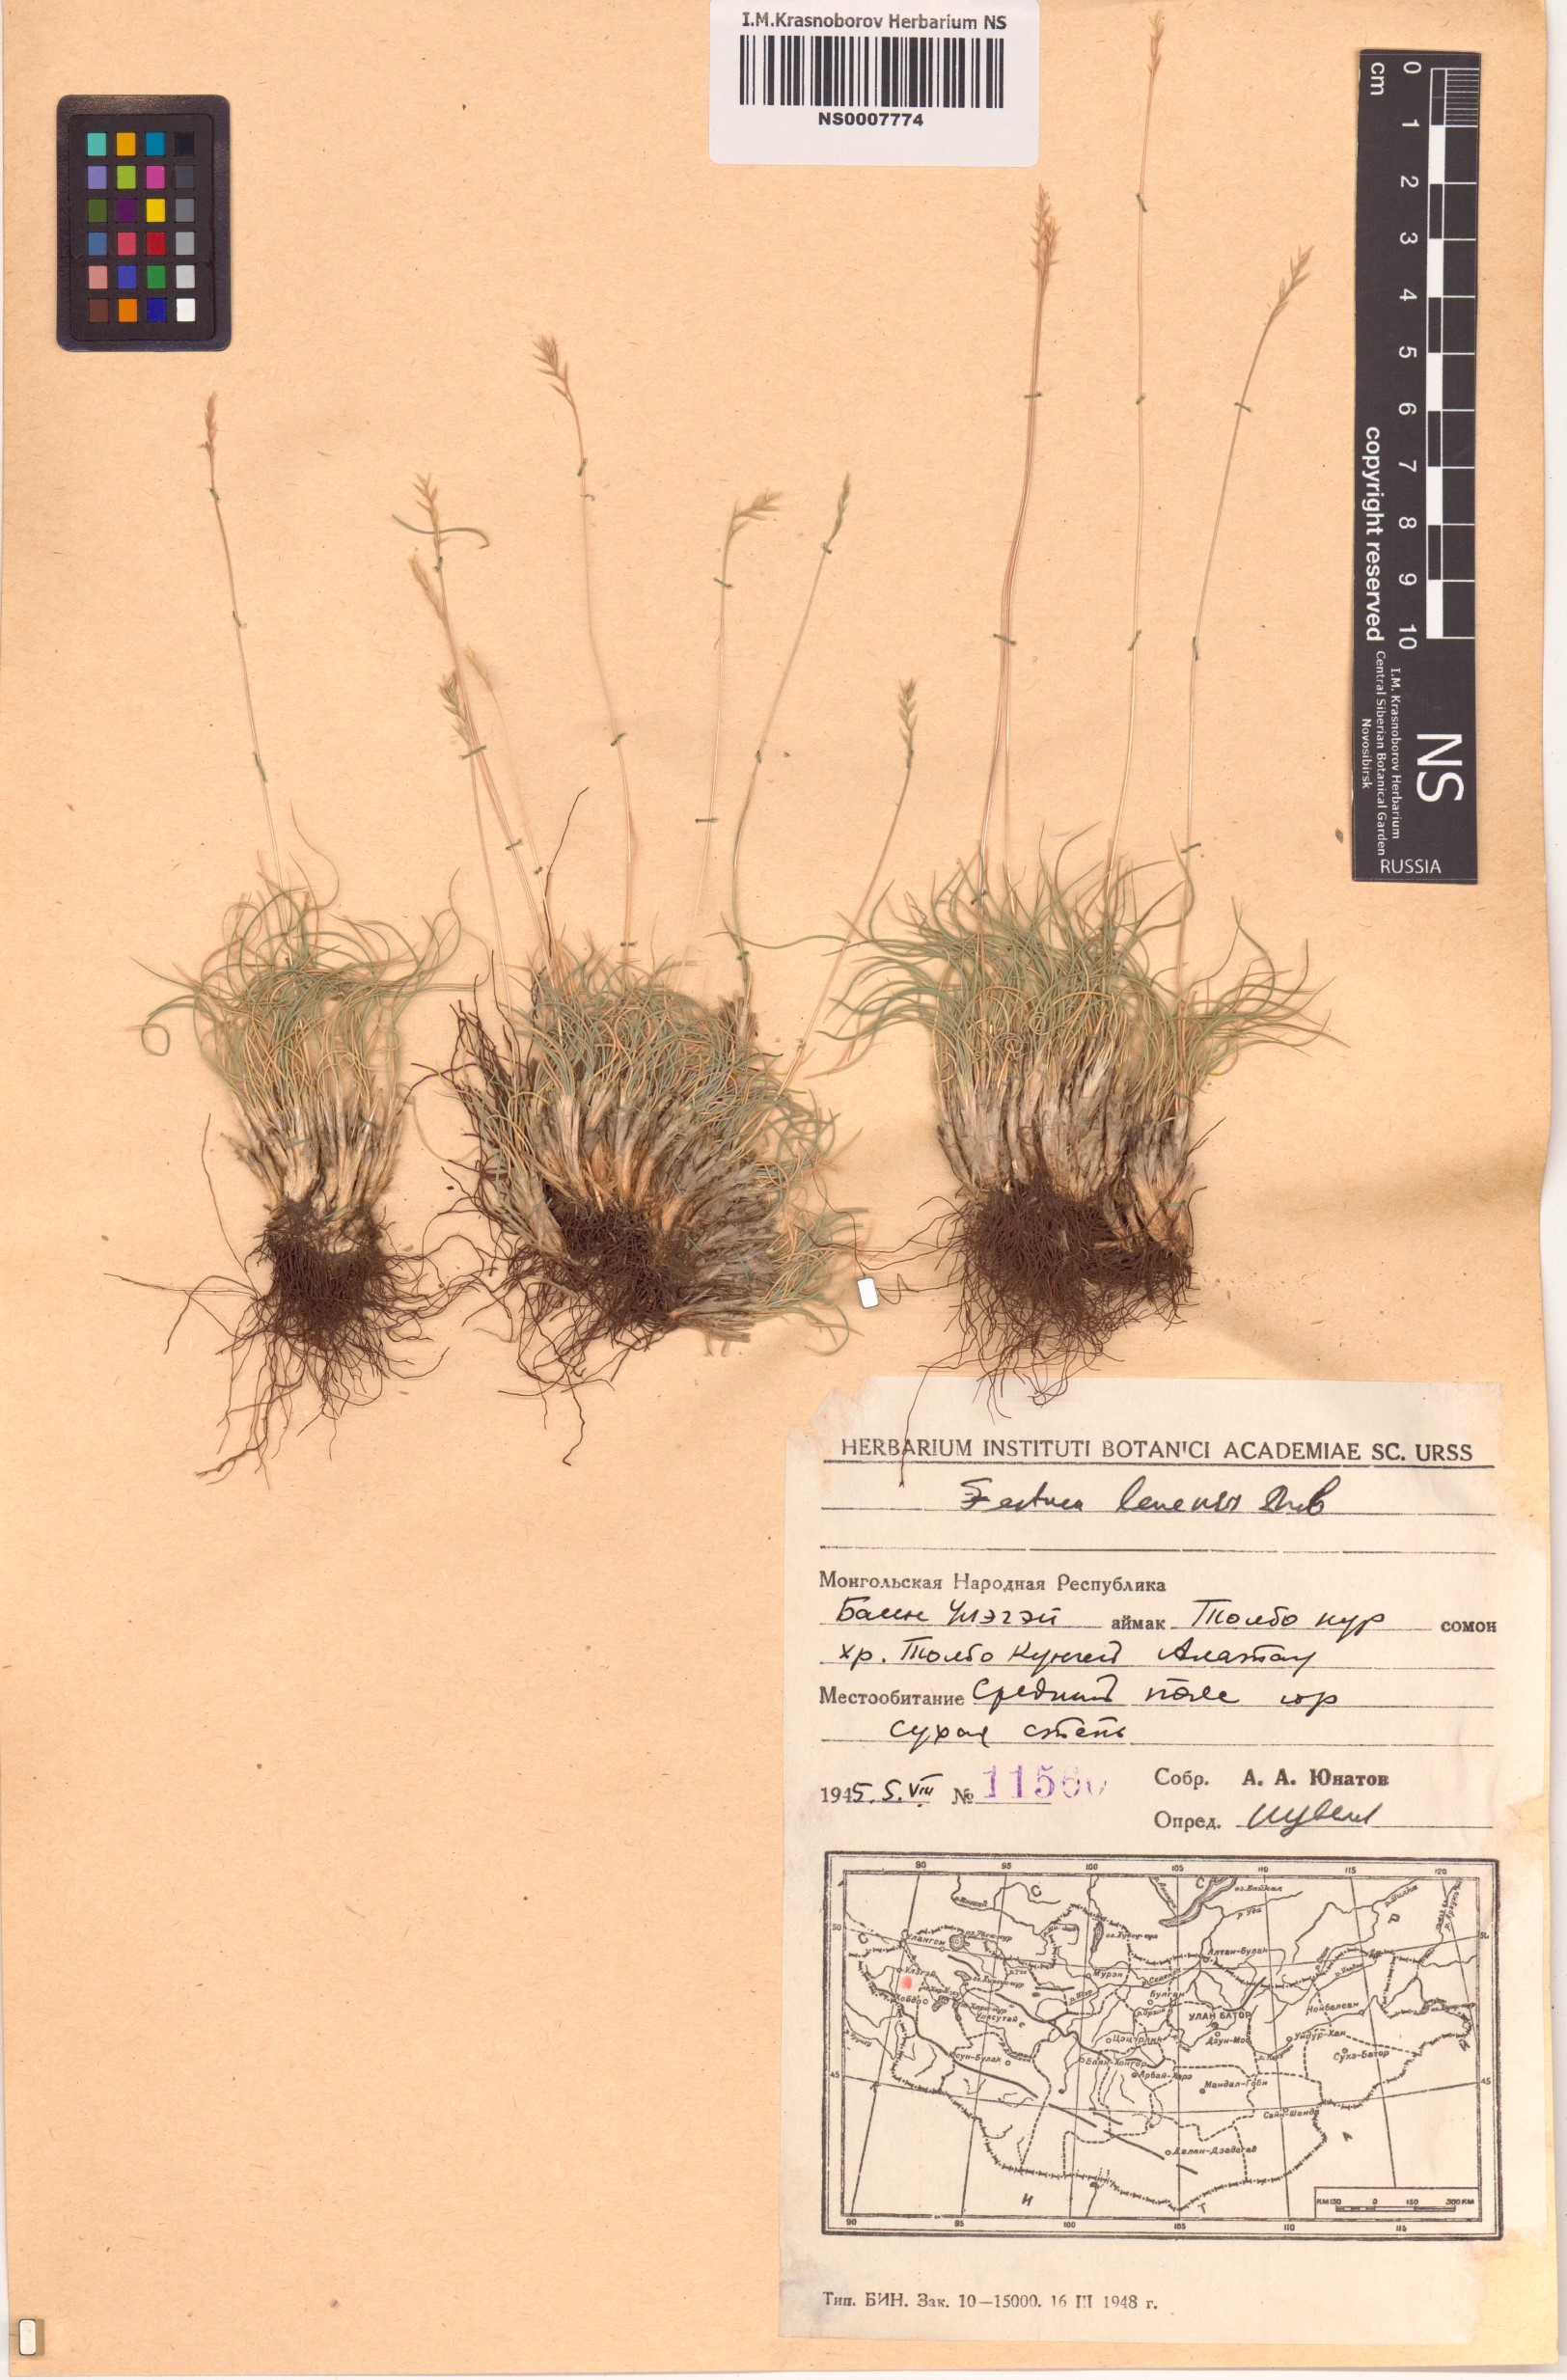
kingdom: Plantae
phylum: Tracheophyta
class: Liliopsida
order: Poales
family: Poaceae
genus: Festuca
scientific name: Festuca lenensis
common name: Lena river fescue
